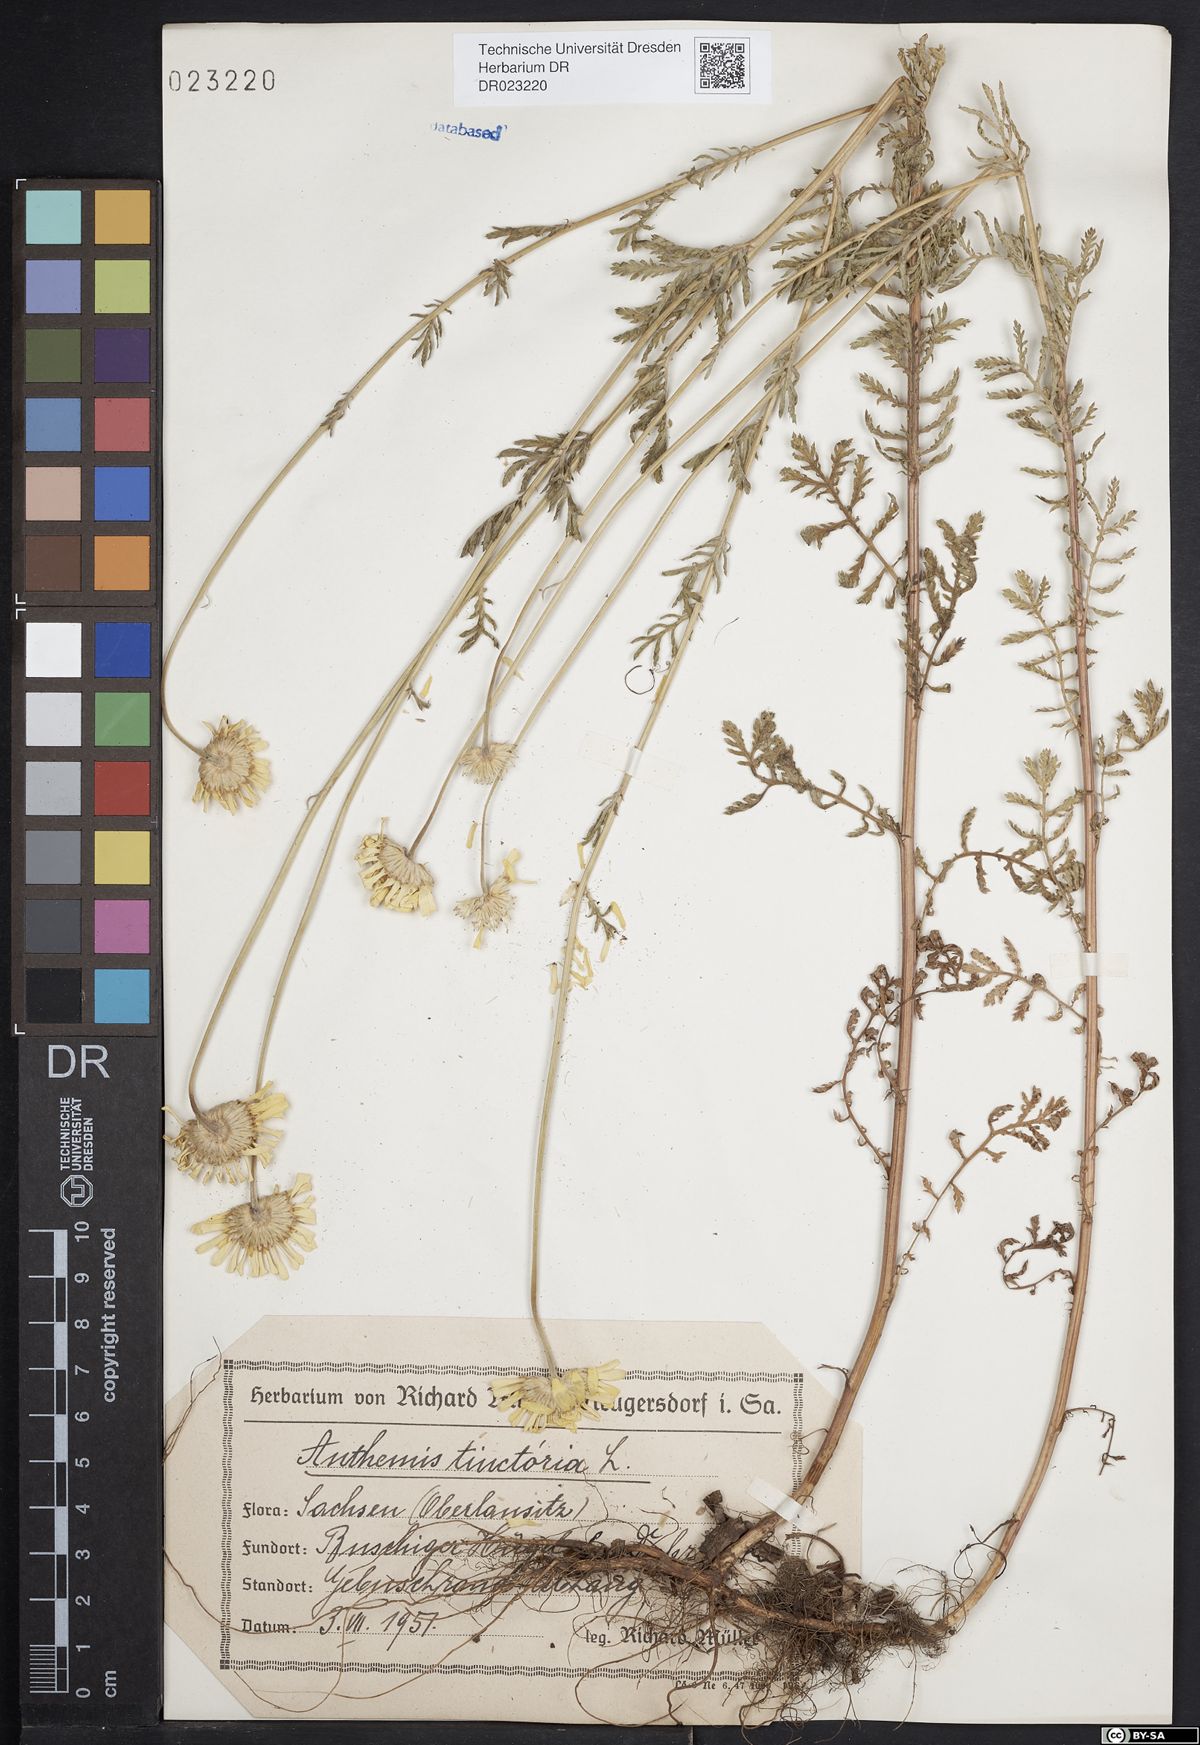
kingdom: Plantae
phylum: Tracheophyta
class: Magnoliopsida
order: Asterales
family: Asteraceae
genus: Cota
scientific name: Cota tinctoria
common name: Golden chamomile
